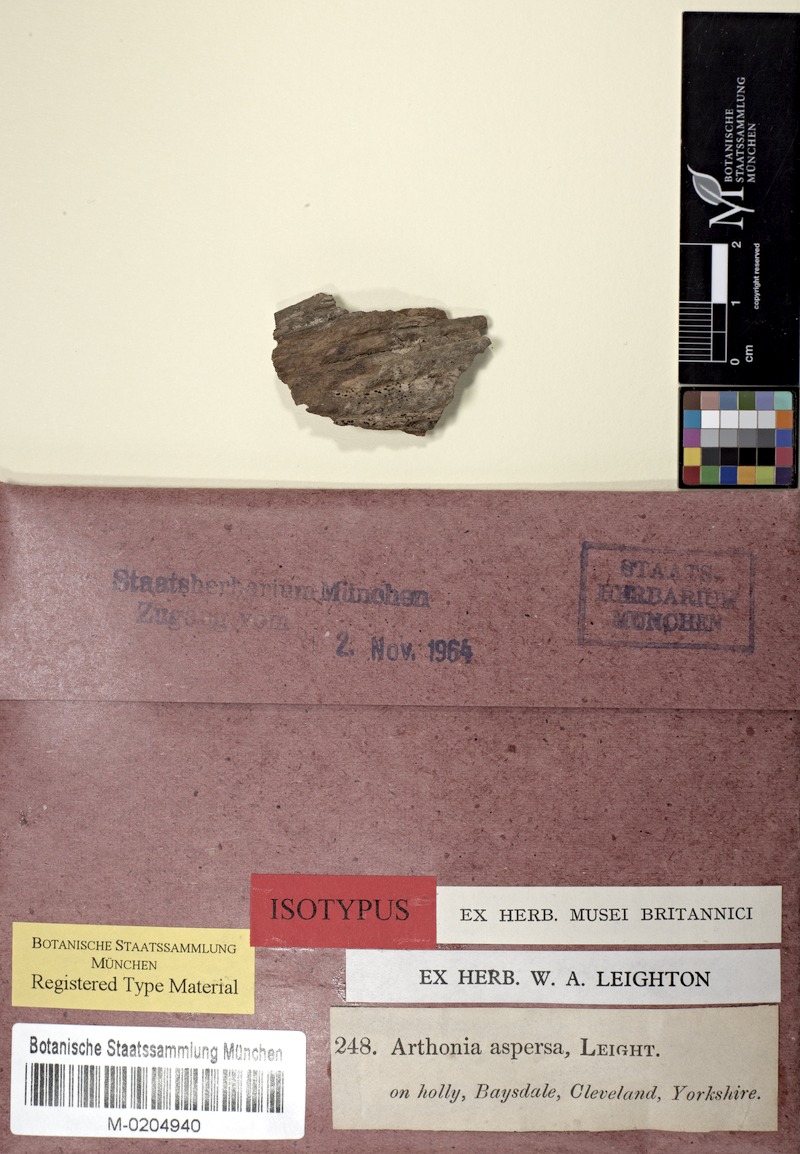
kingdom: Fungi
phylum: Ascomycota
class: Arthoniomycetes
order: Arthoniales
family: Arthoniaceae
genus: Arthonia
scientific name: Arthonia arthonioides
